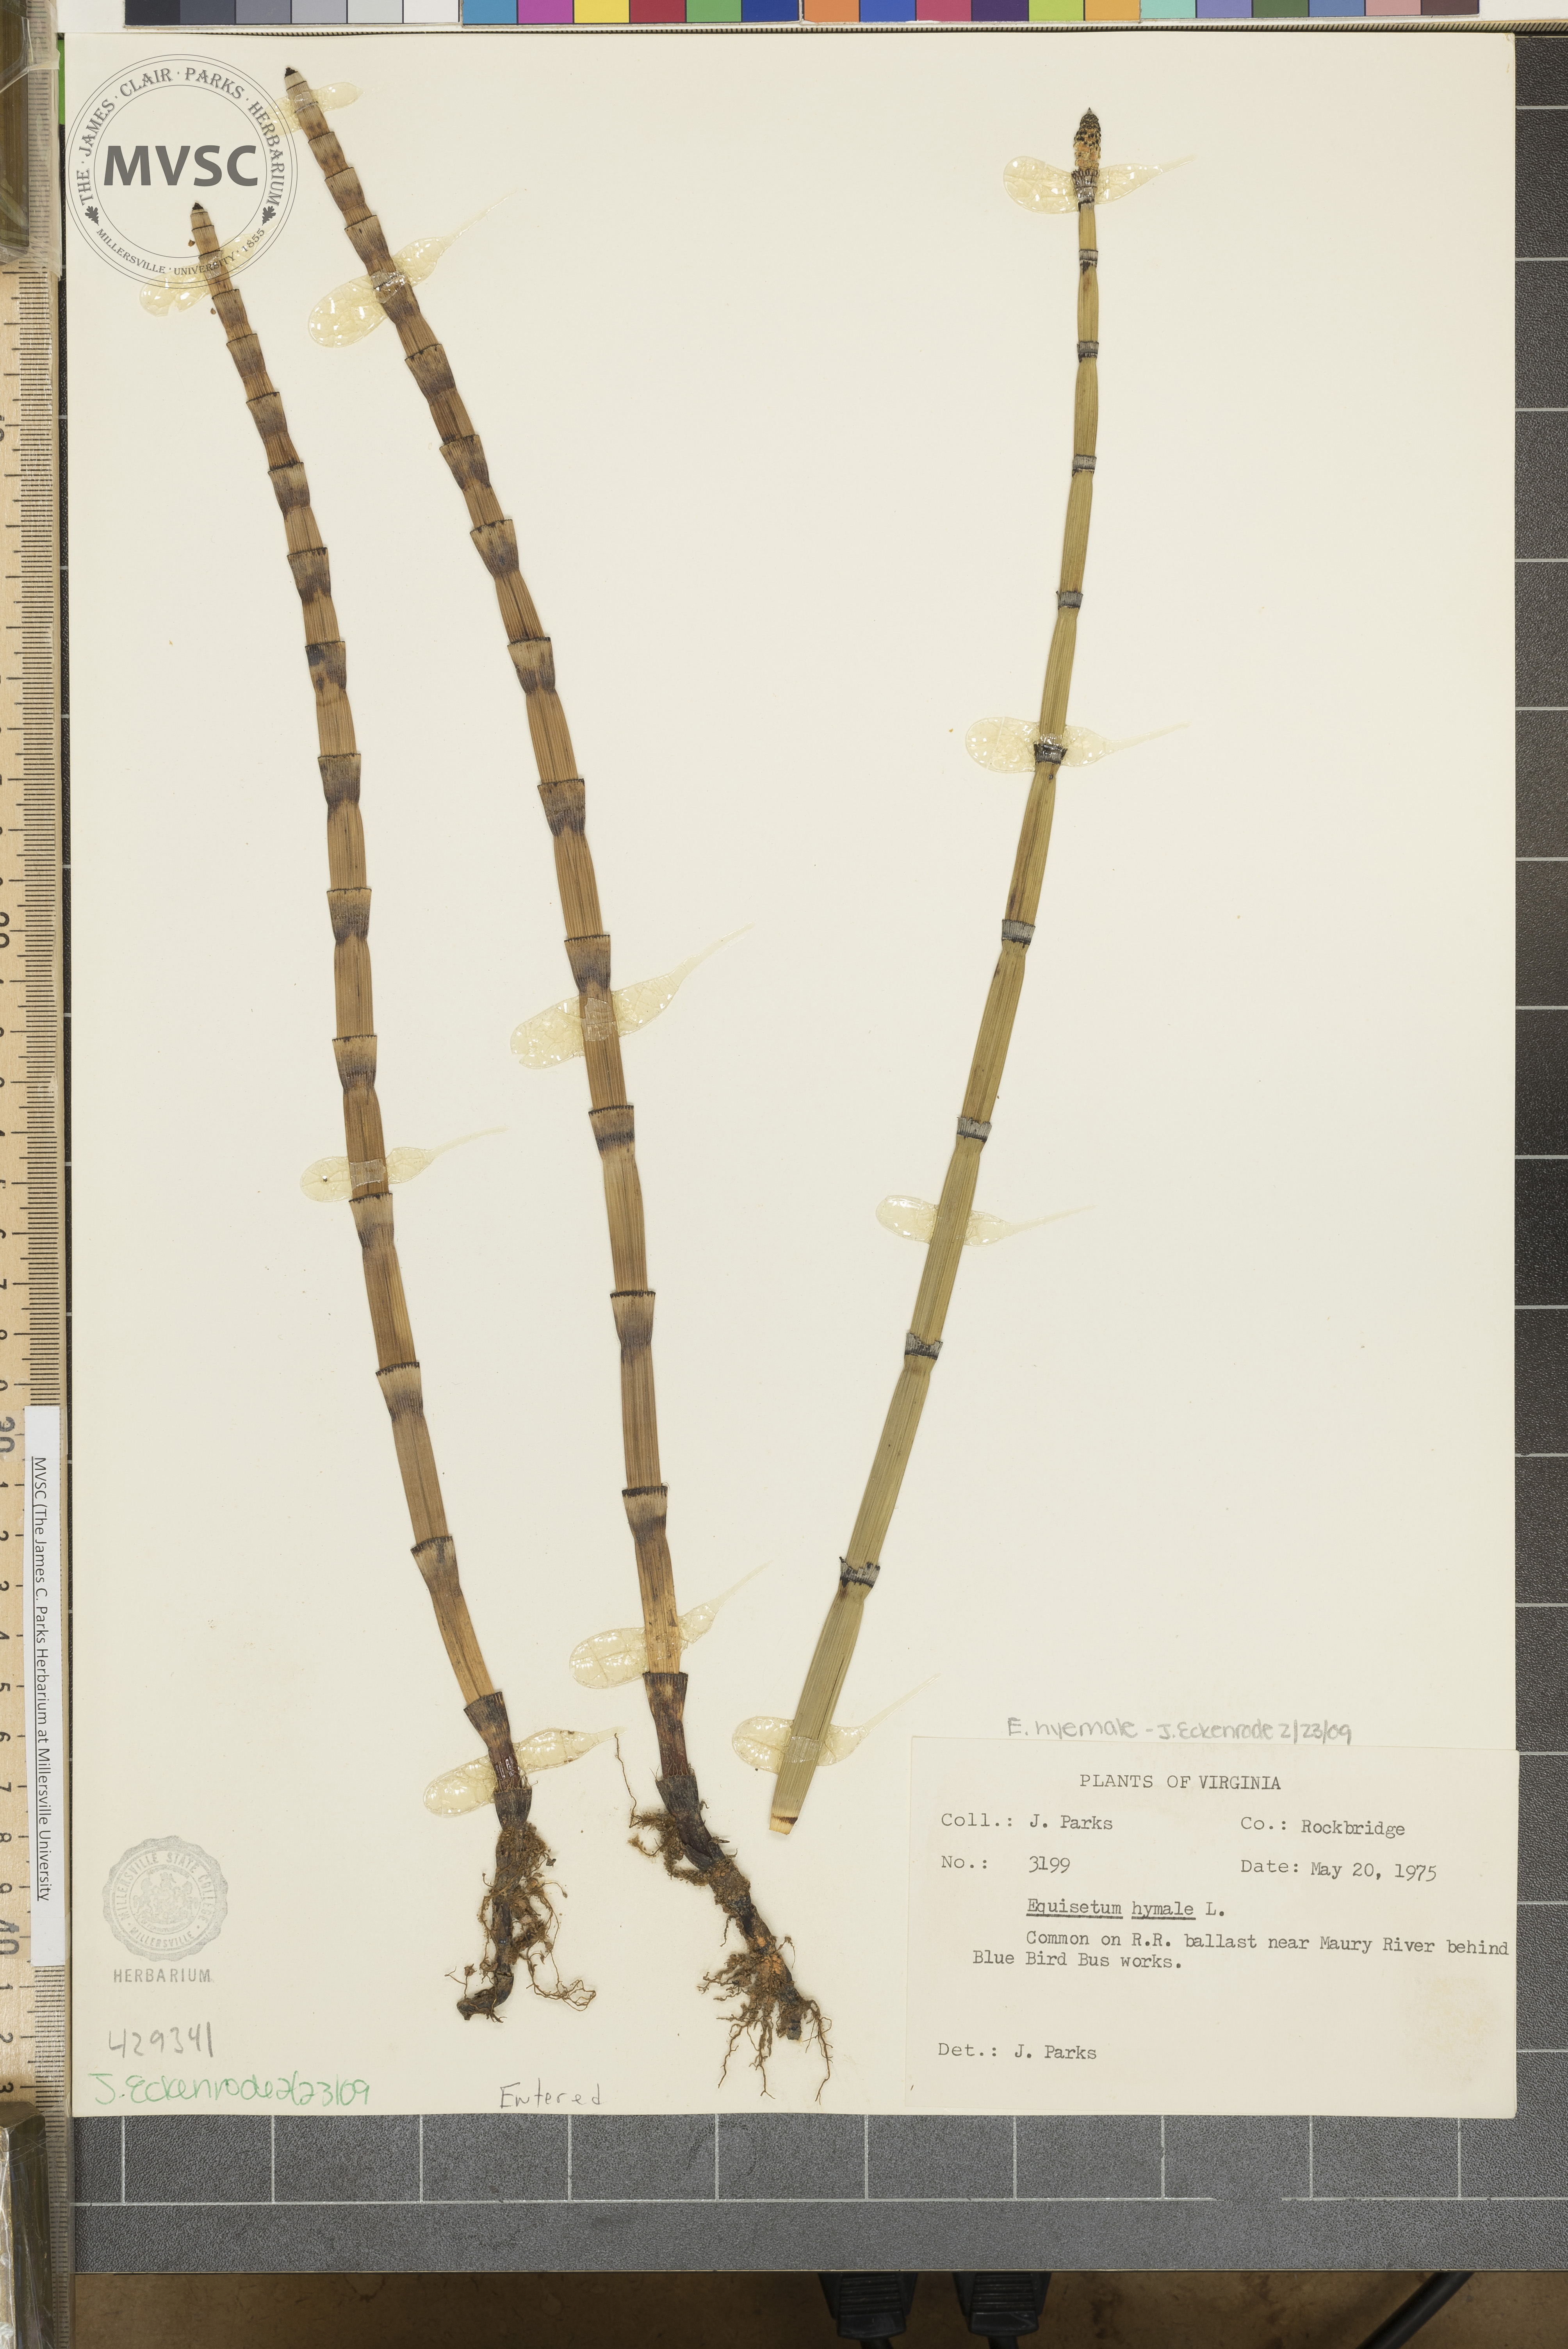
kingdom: Plantae
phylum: Tracheophyta
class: Polypodiopsida
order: Equisetales
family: Equisetaceae
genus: Equisetum
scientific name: Equisetum hyemale
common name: Rough horsetail
